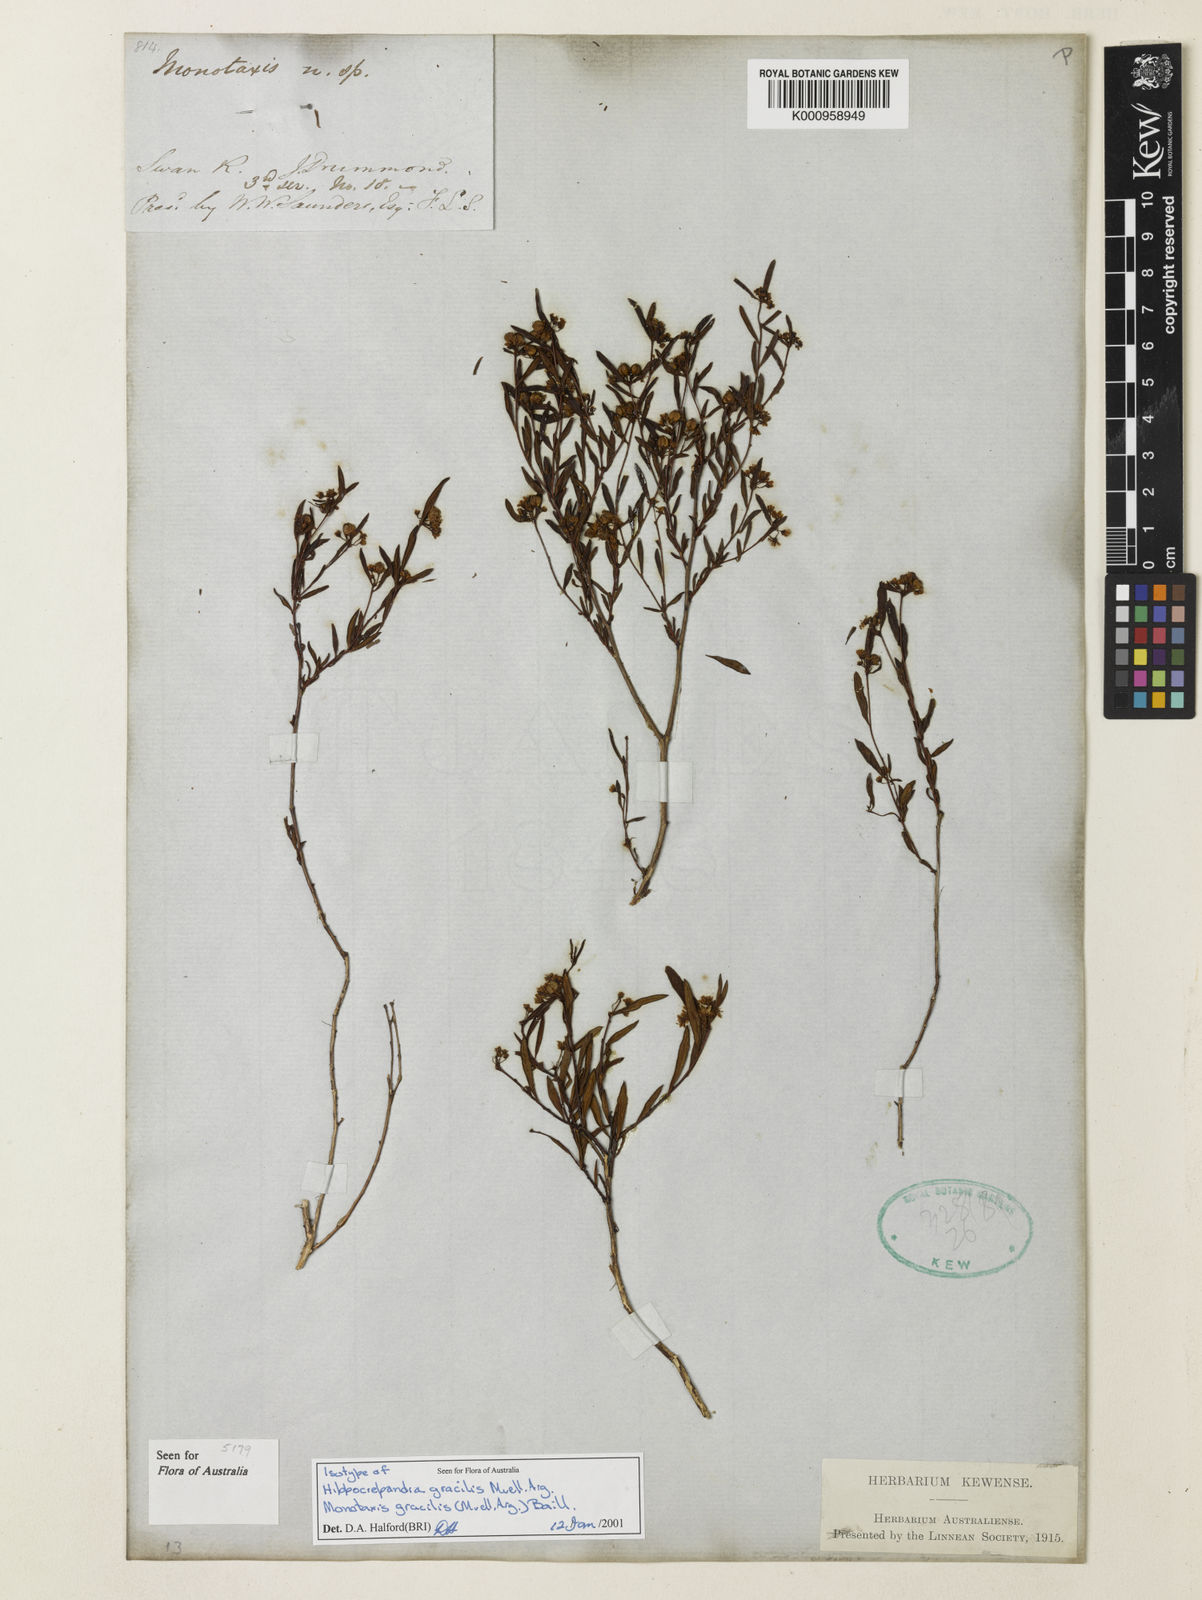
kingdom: Plantae
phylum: Tracheophyta
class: Magnoliopsida
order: Malpighiales
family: Euphorbiaceae
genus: Monotaxis
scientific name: Monotaxis
